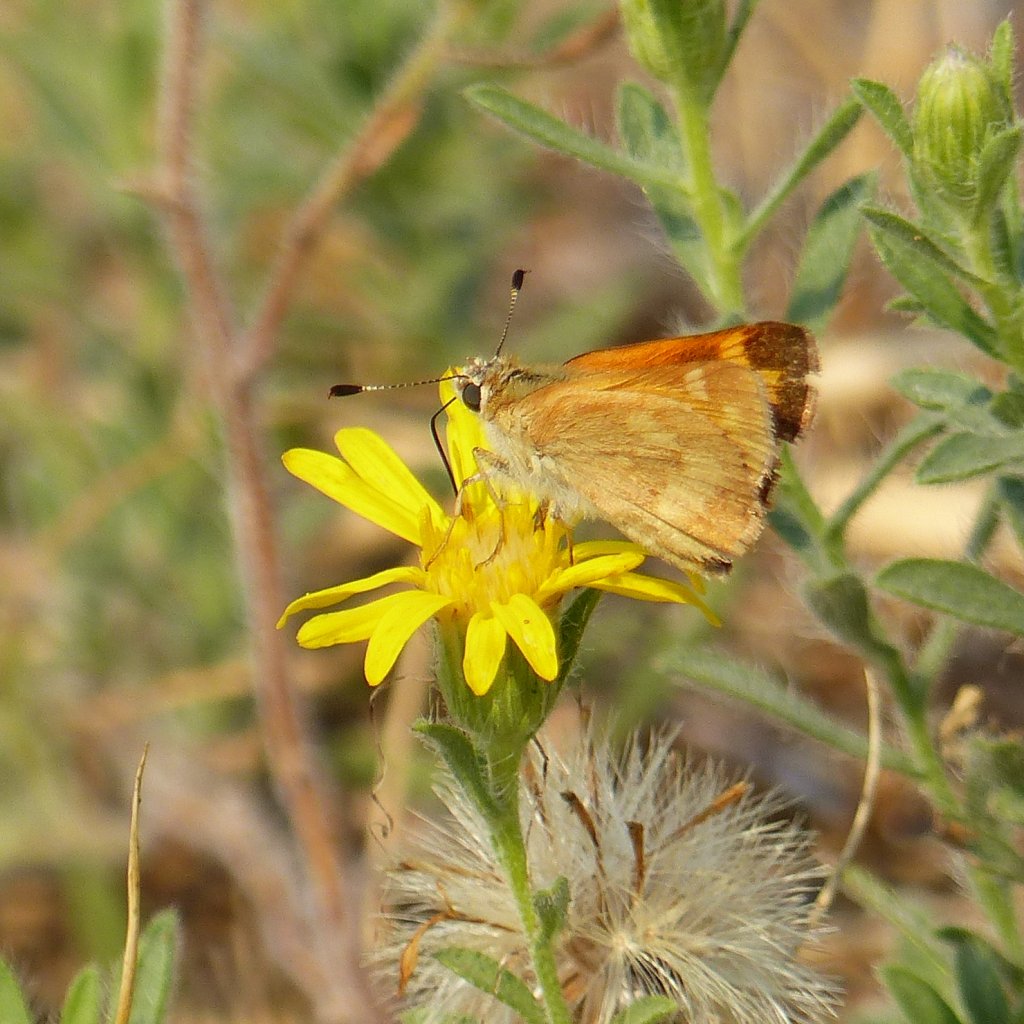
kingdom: Animalia
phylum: Arthropoda
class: Insecta
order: Lepidoptera
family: Hesperiidae
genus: Ochlodes
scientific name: Ochlodes sylvanoides
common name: Woodland Skipper
